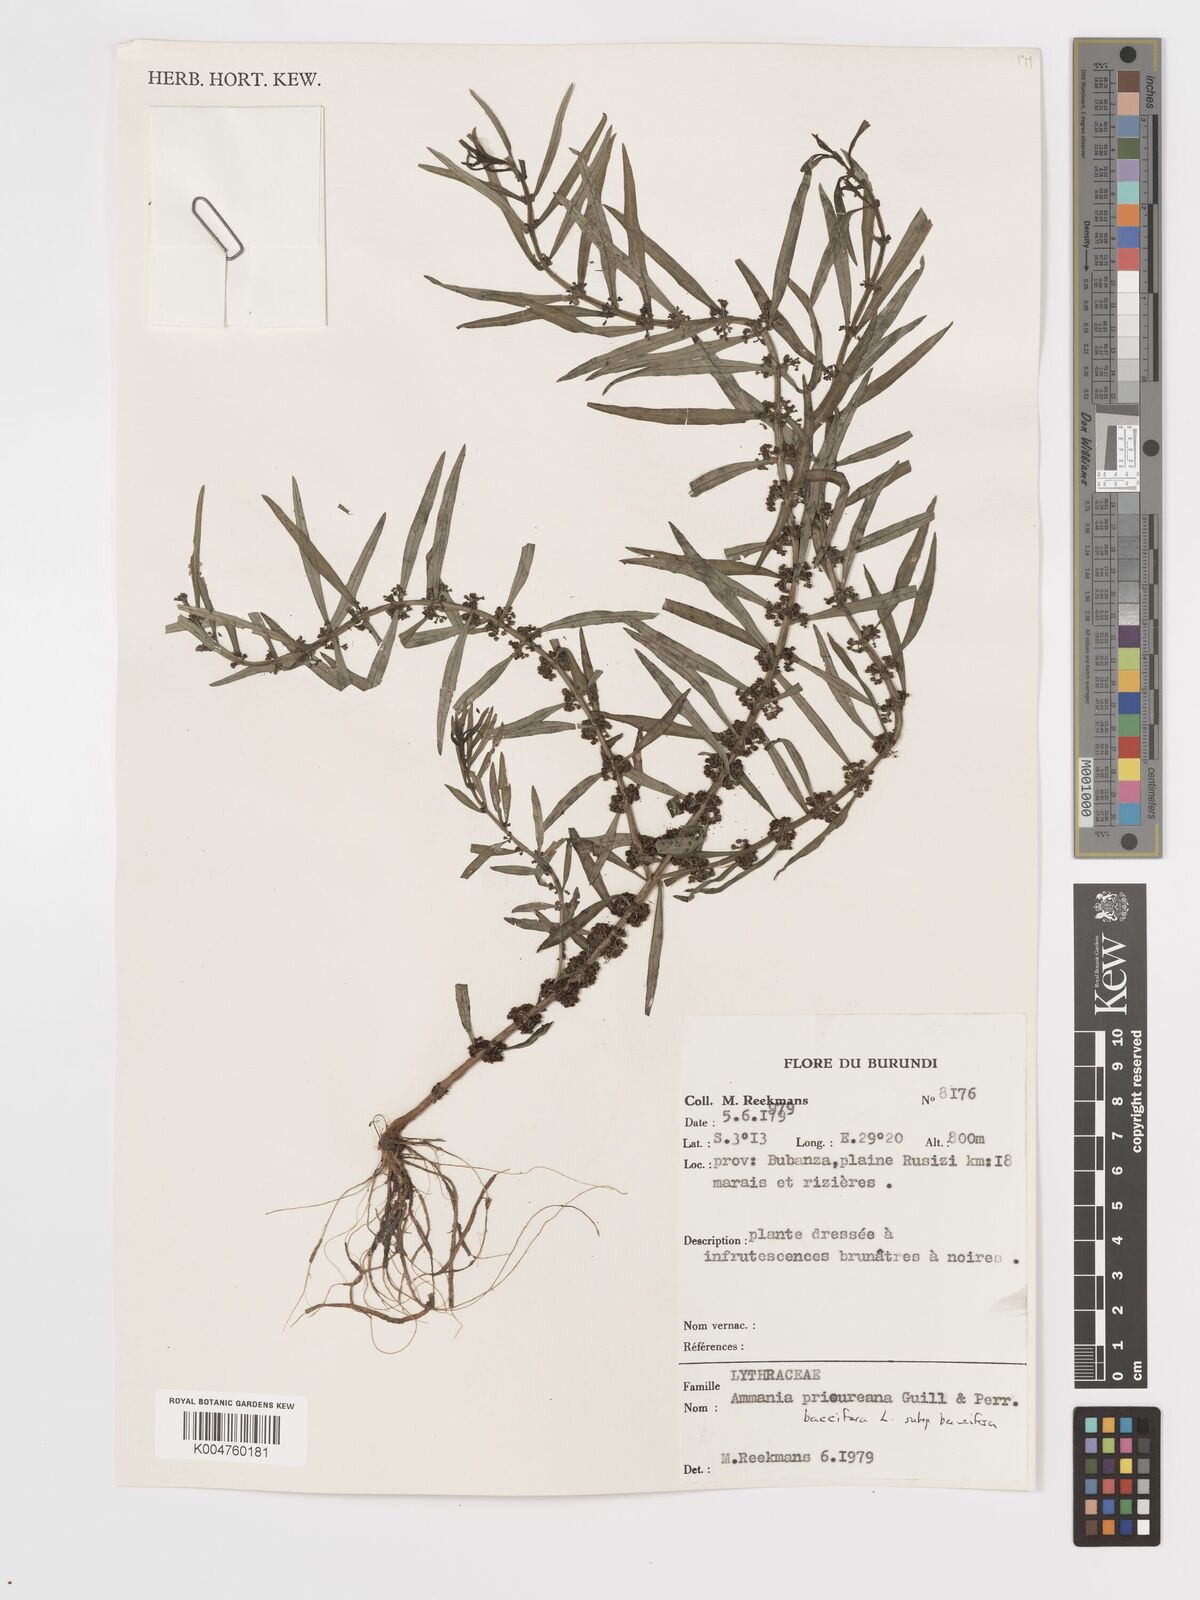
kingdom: Plantae
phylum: Tracheophyta
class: Magnoliopsida
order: Myrtales
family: Lythraceae
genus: Ammannia
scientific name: Ammannia
